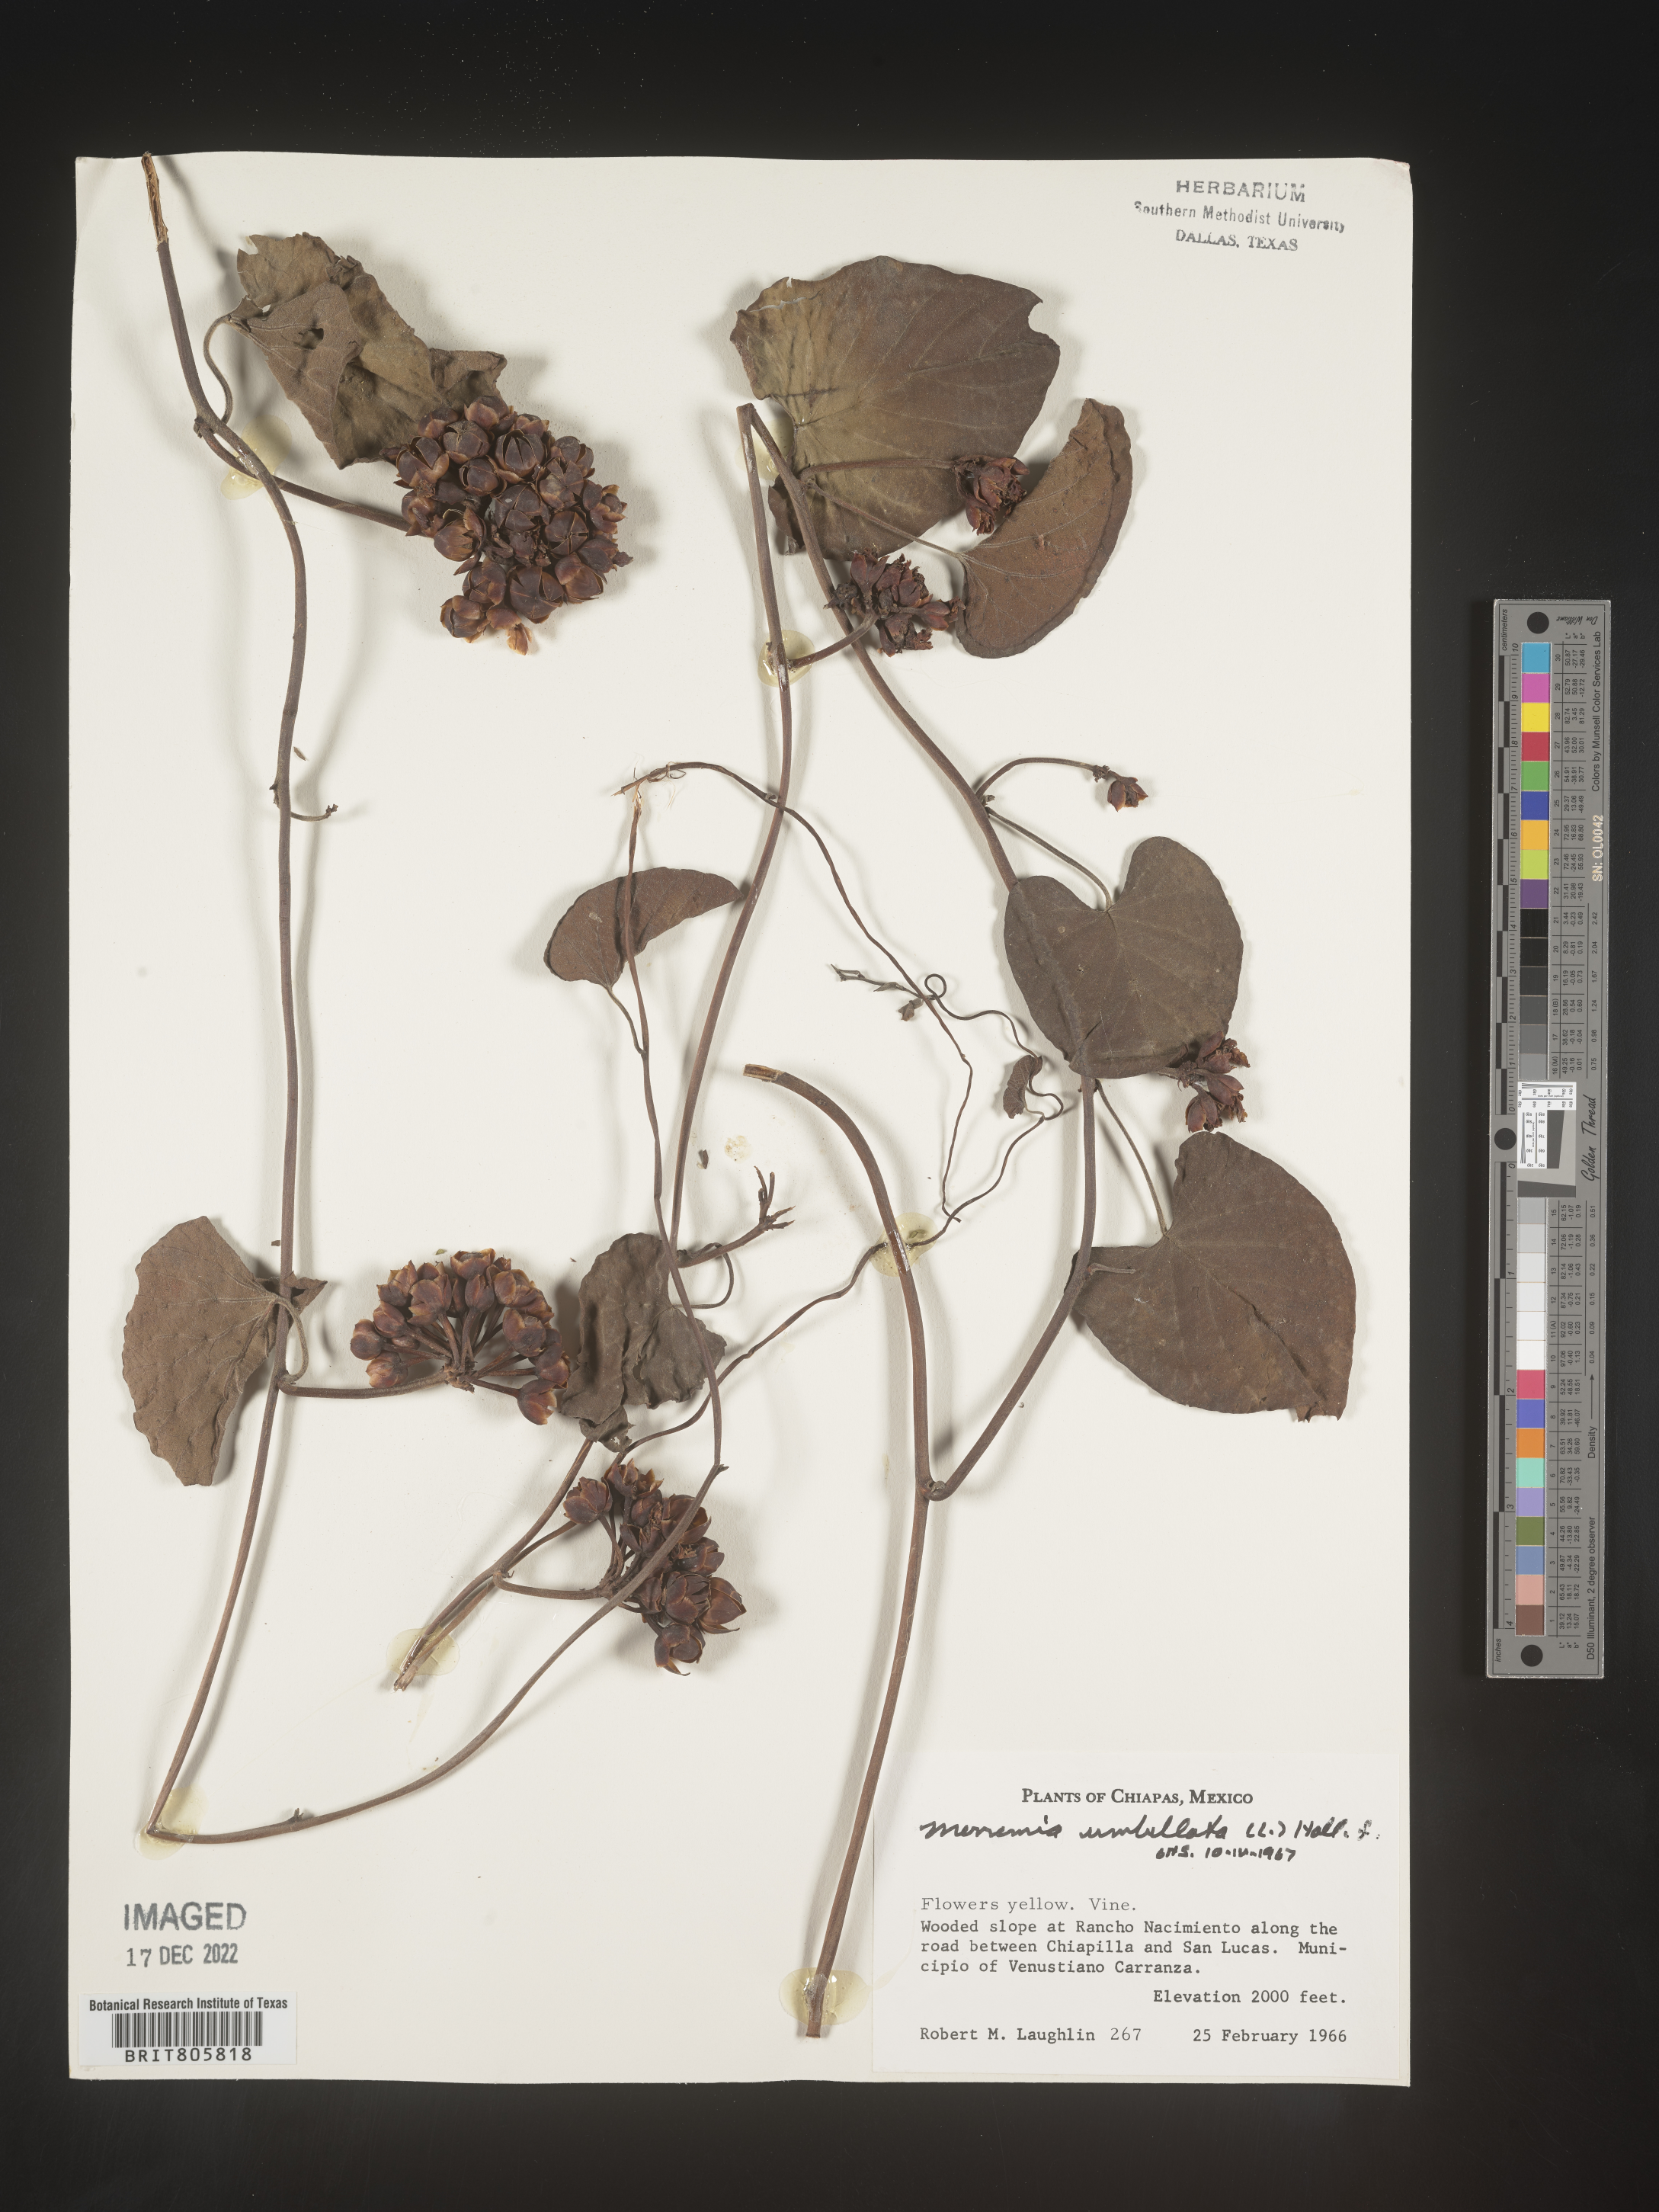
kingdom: Plantae
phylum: Tracheophyta
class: Magnoliopsida
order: Solanales
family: Convolvulaceae
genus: Merremia
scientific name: Merremia
